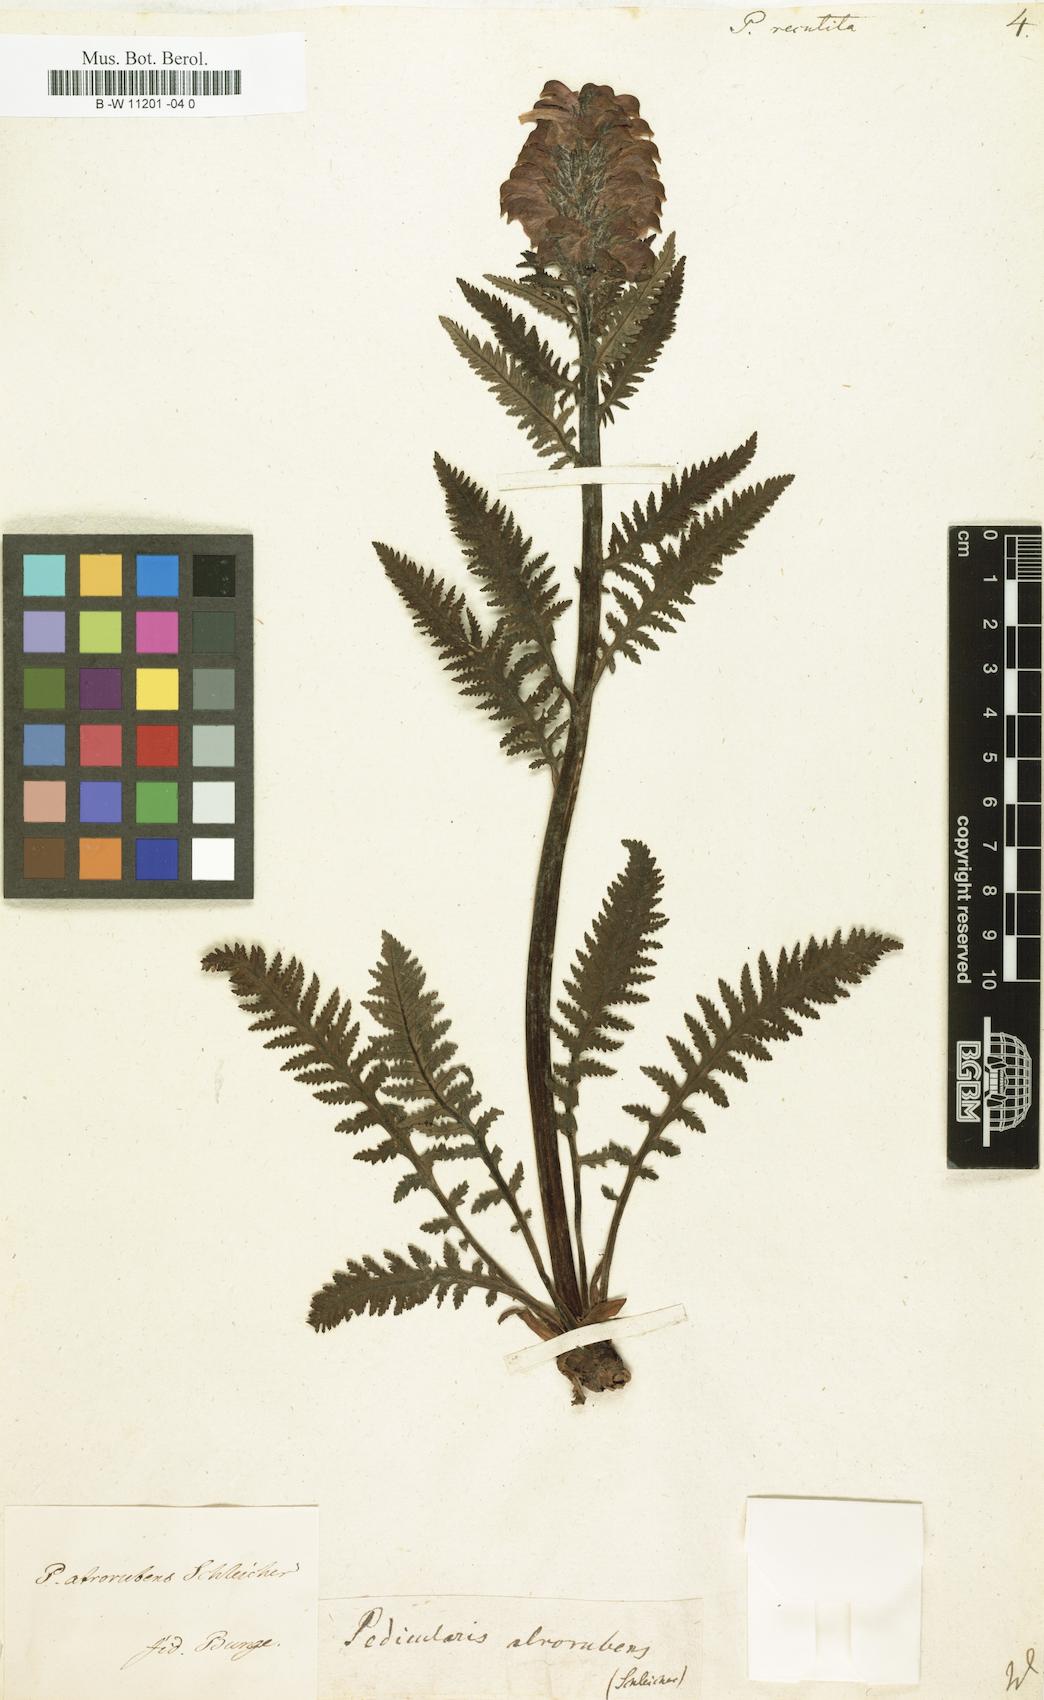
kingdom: Plantae
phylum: Tracheophyta
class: Magnoliopsida
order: Lamiales
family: Orobanchaceae
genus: Pedicularis
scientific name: Pedicularis recutita
